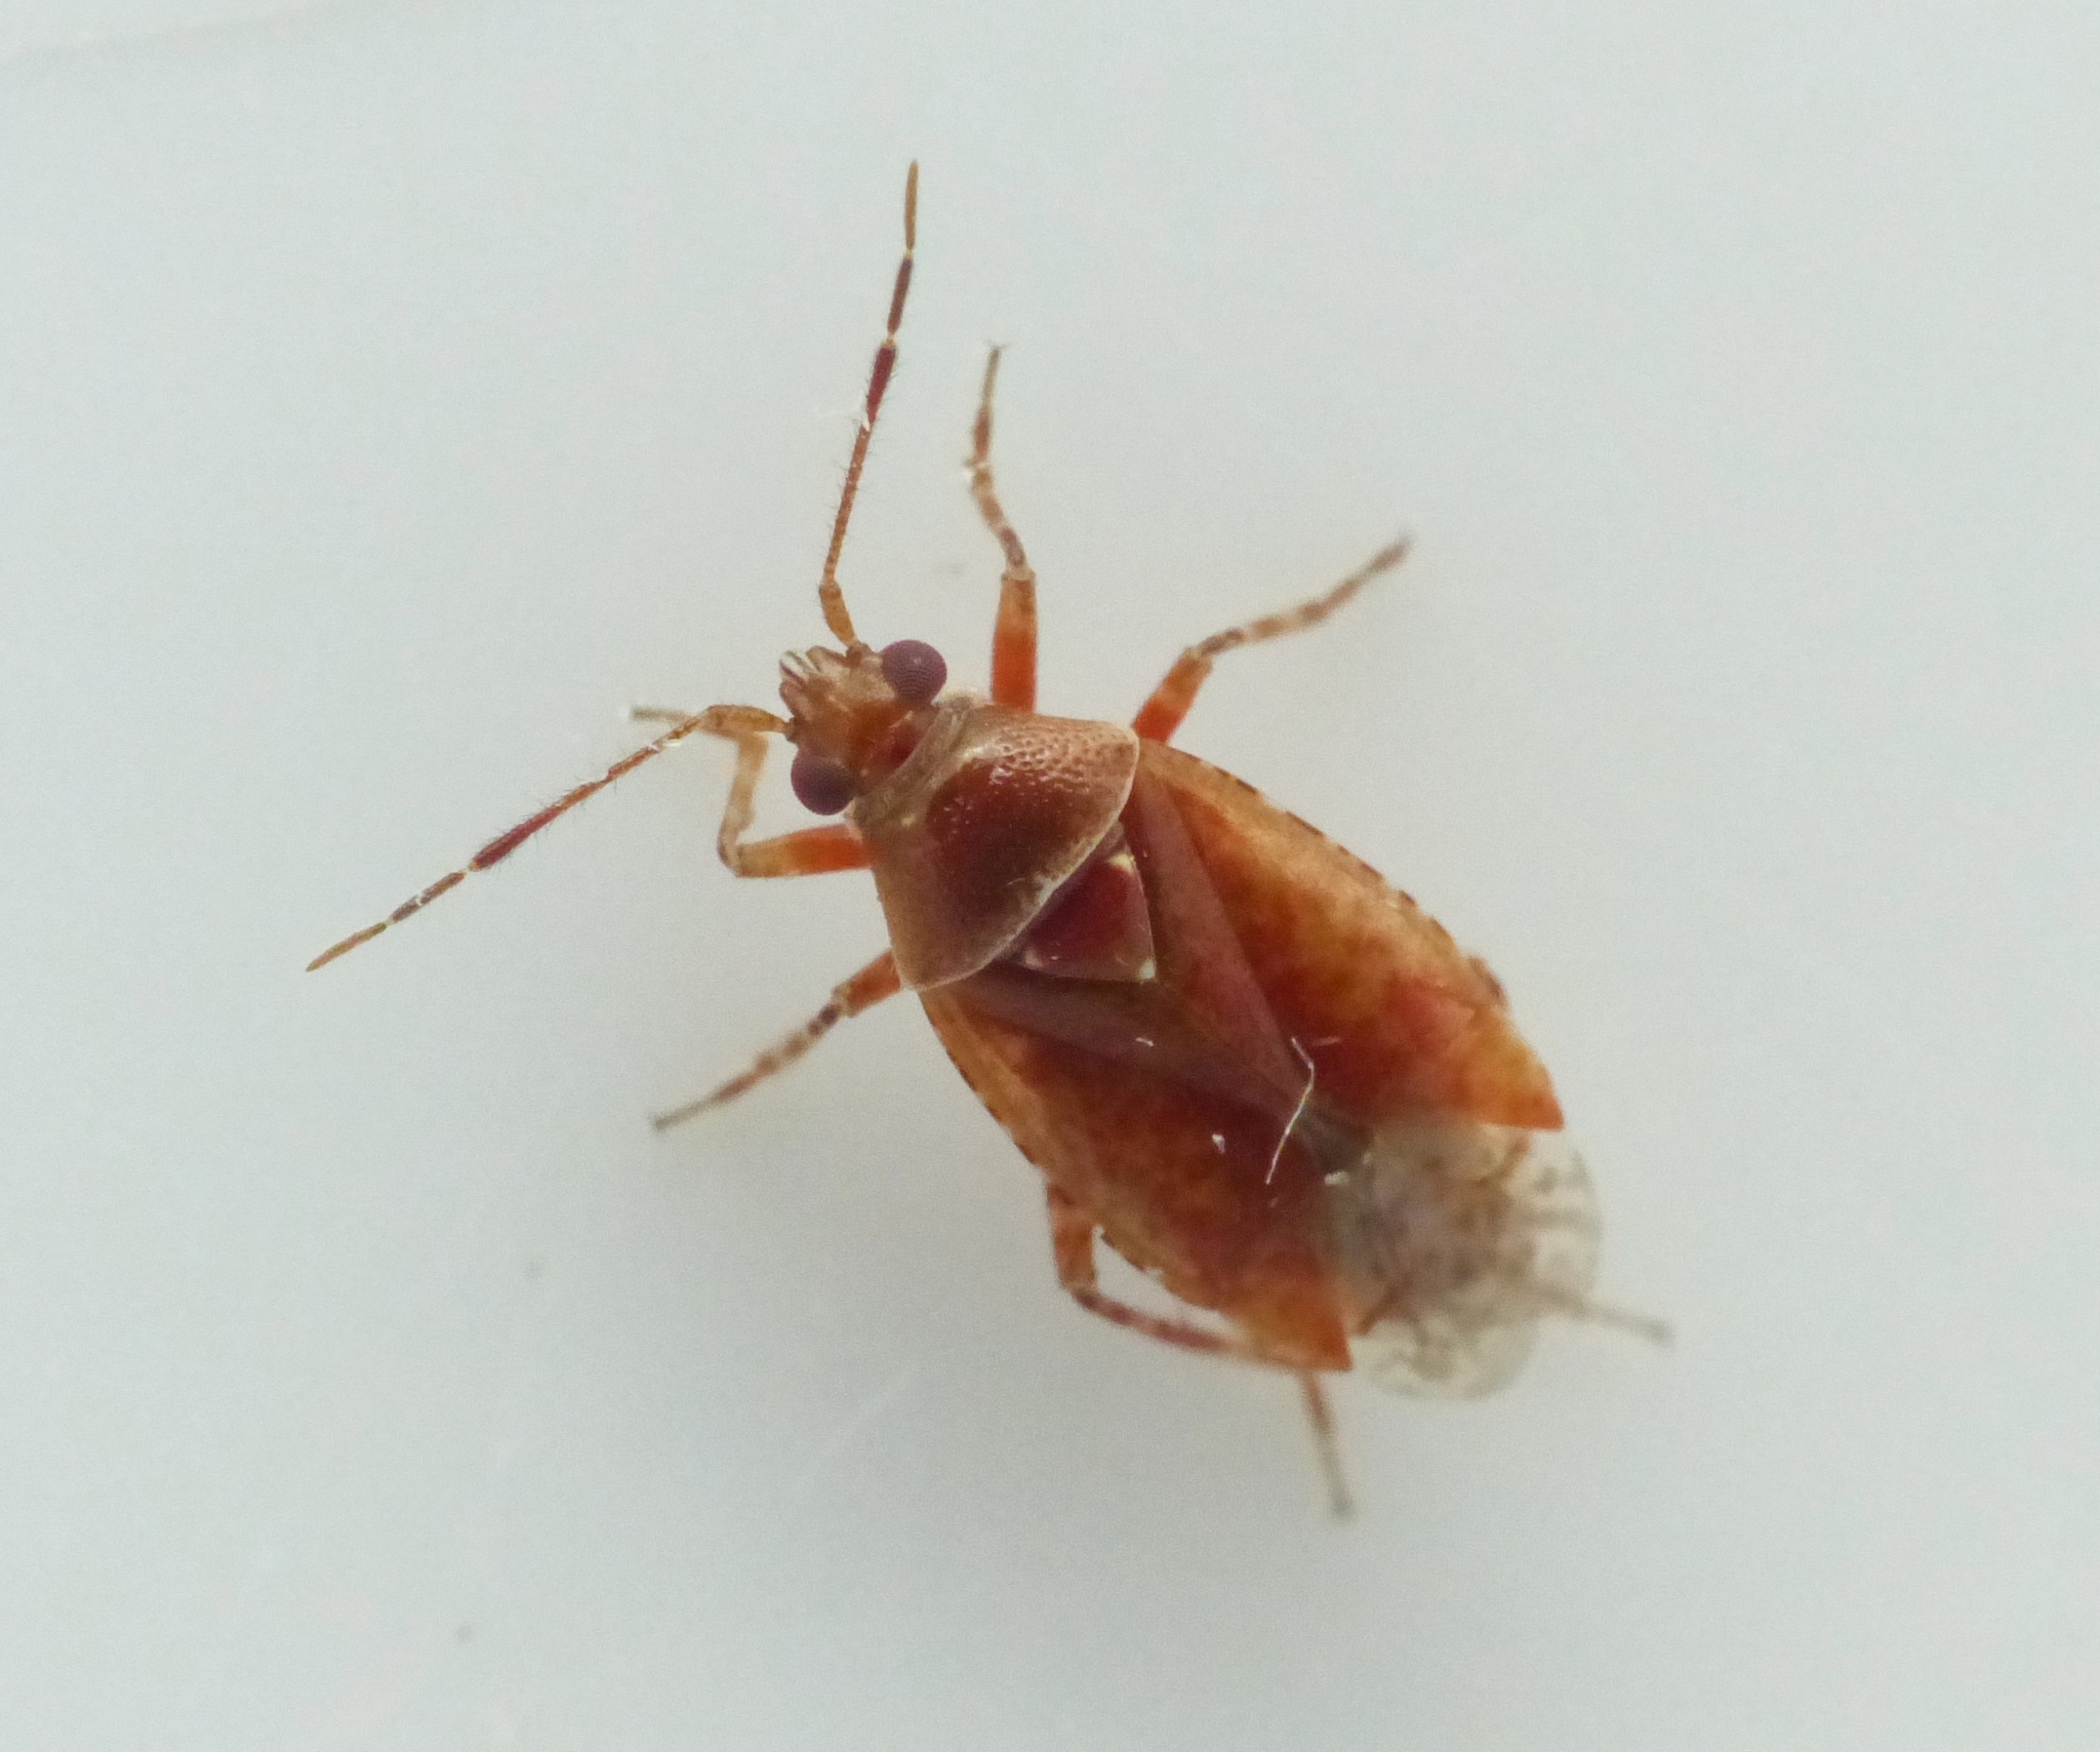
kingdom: Animalia
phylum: Arthropoda
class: Insecta
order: Hemiptera
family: Miridae
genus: Alloeotomus
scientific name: Alloeotomus germanicus
